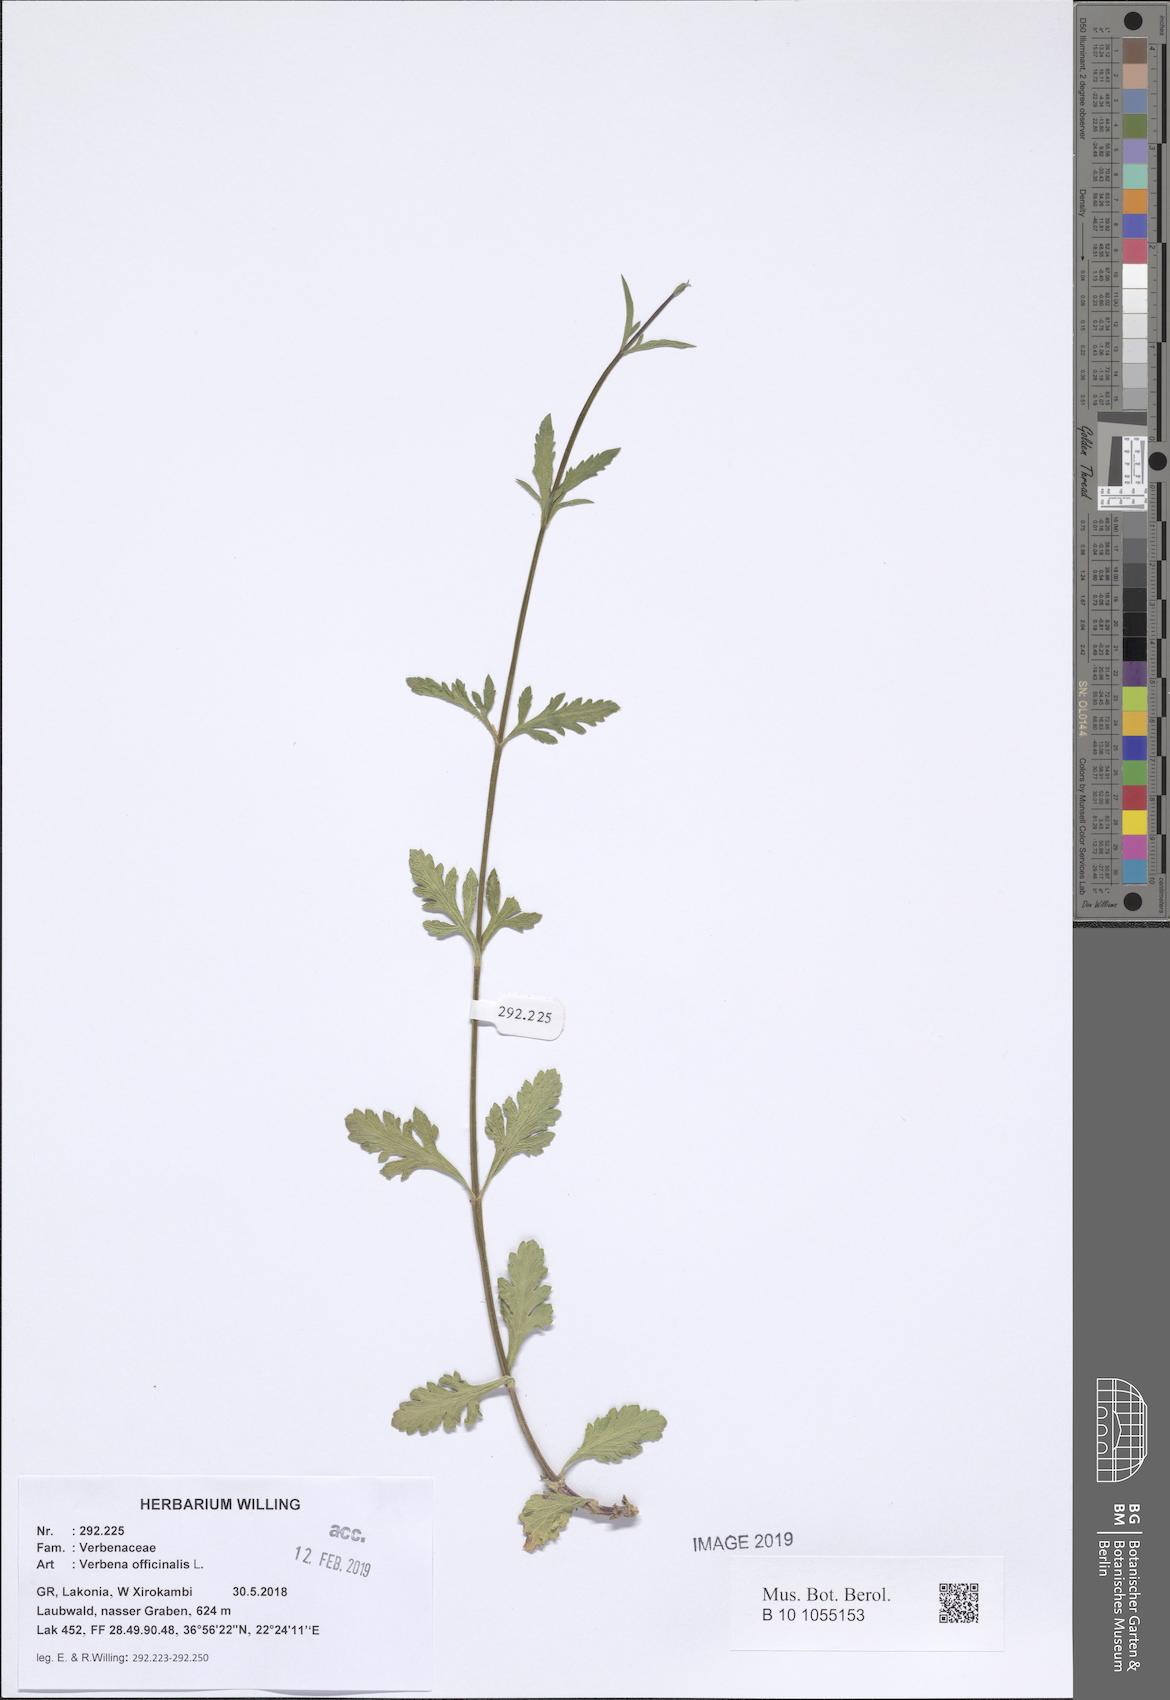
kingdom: Plantae
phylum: Tracheophyta
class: Magnoliopsida
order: Lamiales
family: Verbenaceae
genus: Verbena
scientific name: Verbena officinalis
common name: Vervain
